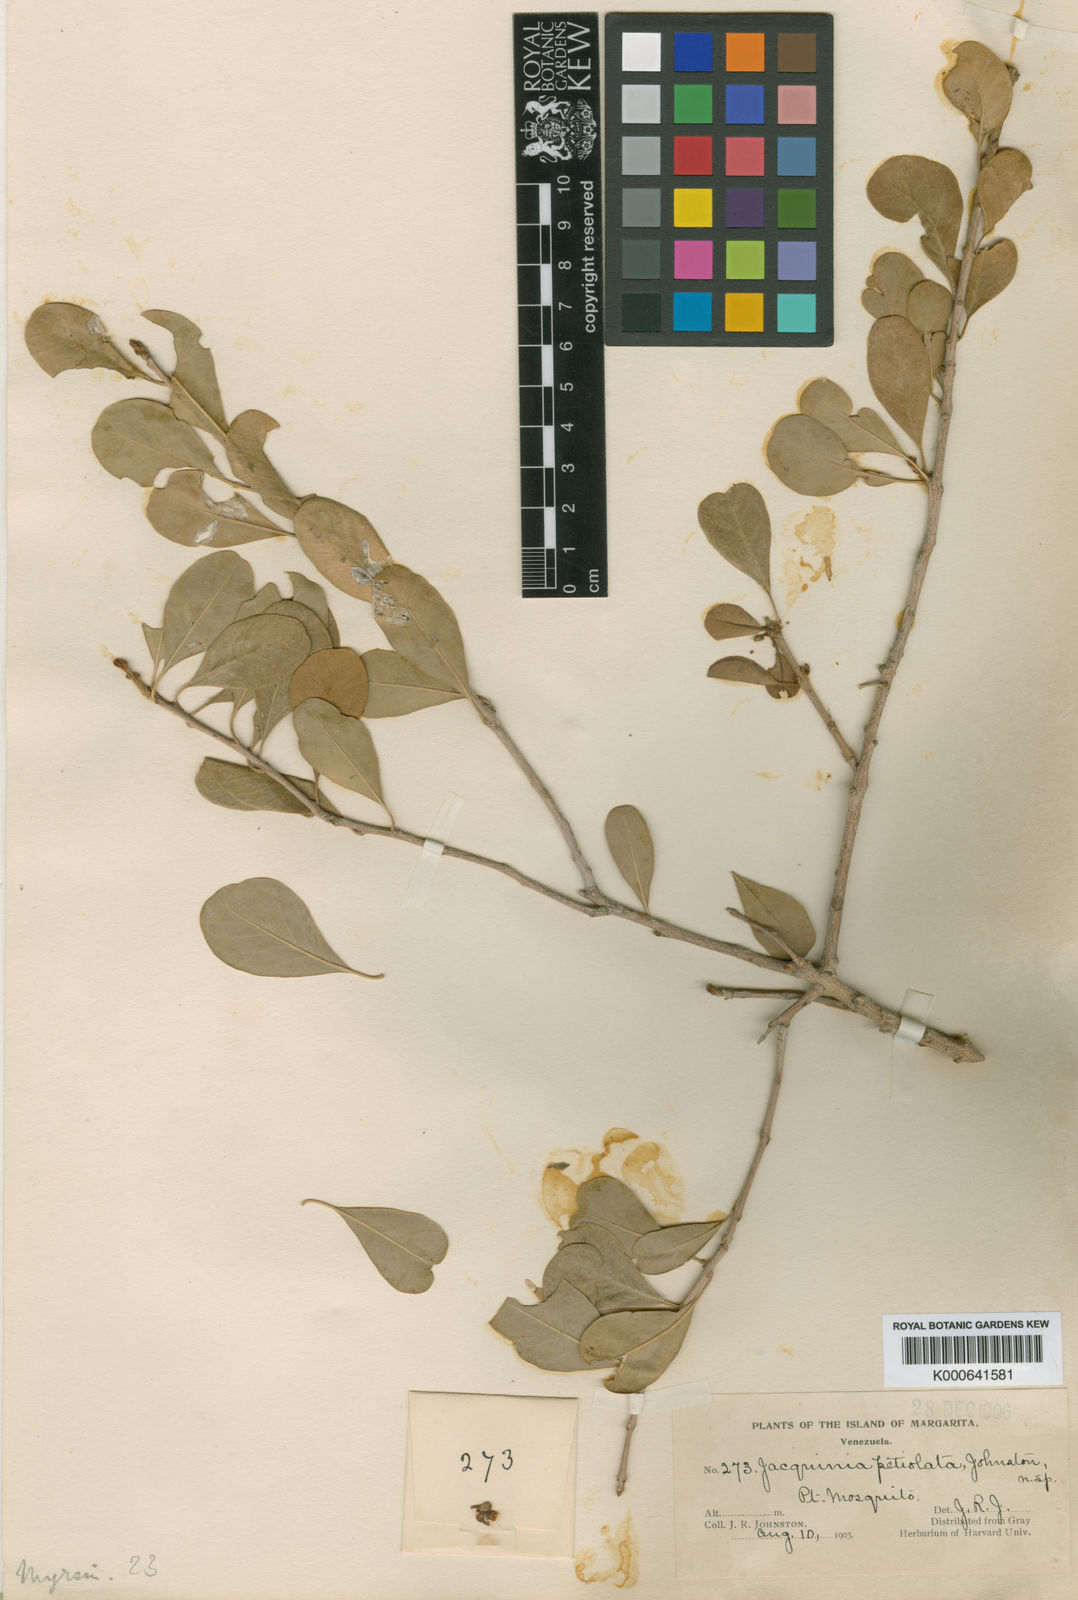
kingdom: Plantae
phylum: Tracheophyta
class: Magnoliopsida
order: Ericales
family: Sapotaceae
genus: Sideroxylon
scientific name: Sideroxylon obtusifolium
